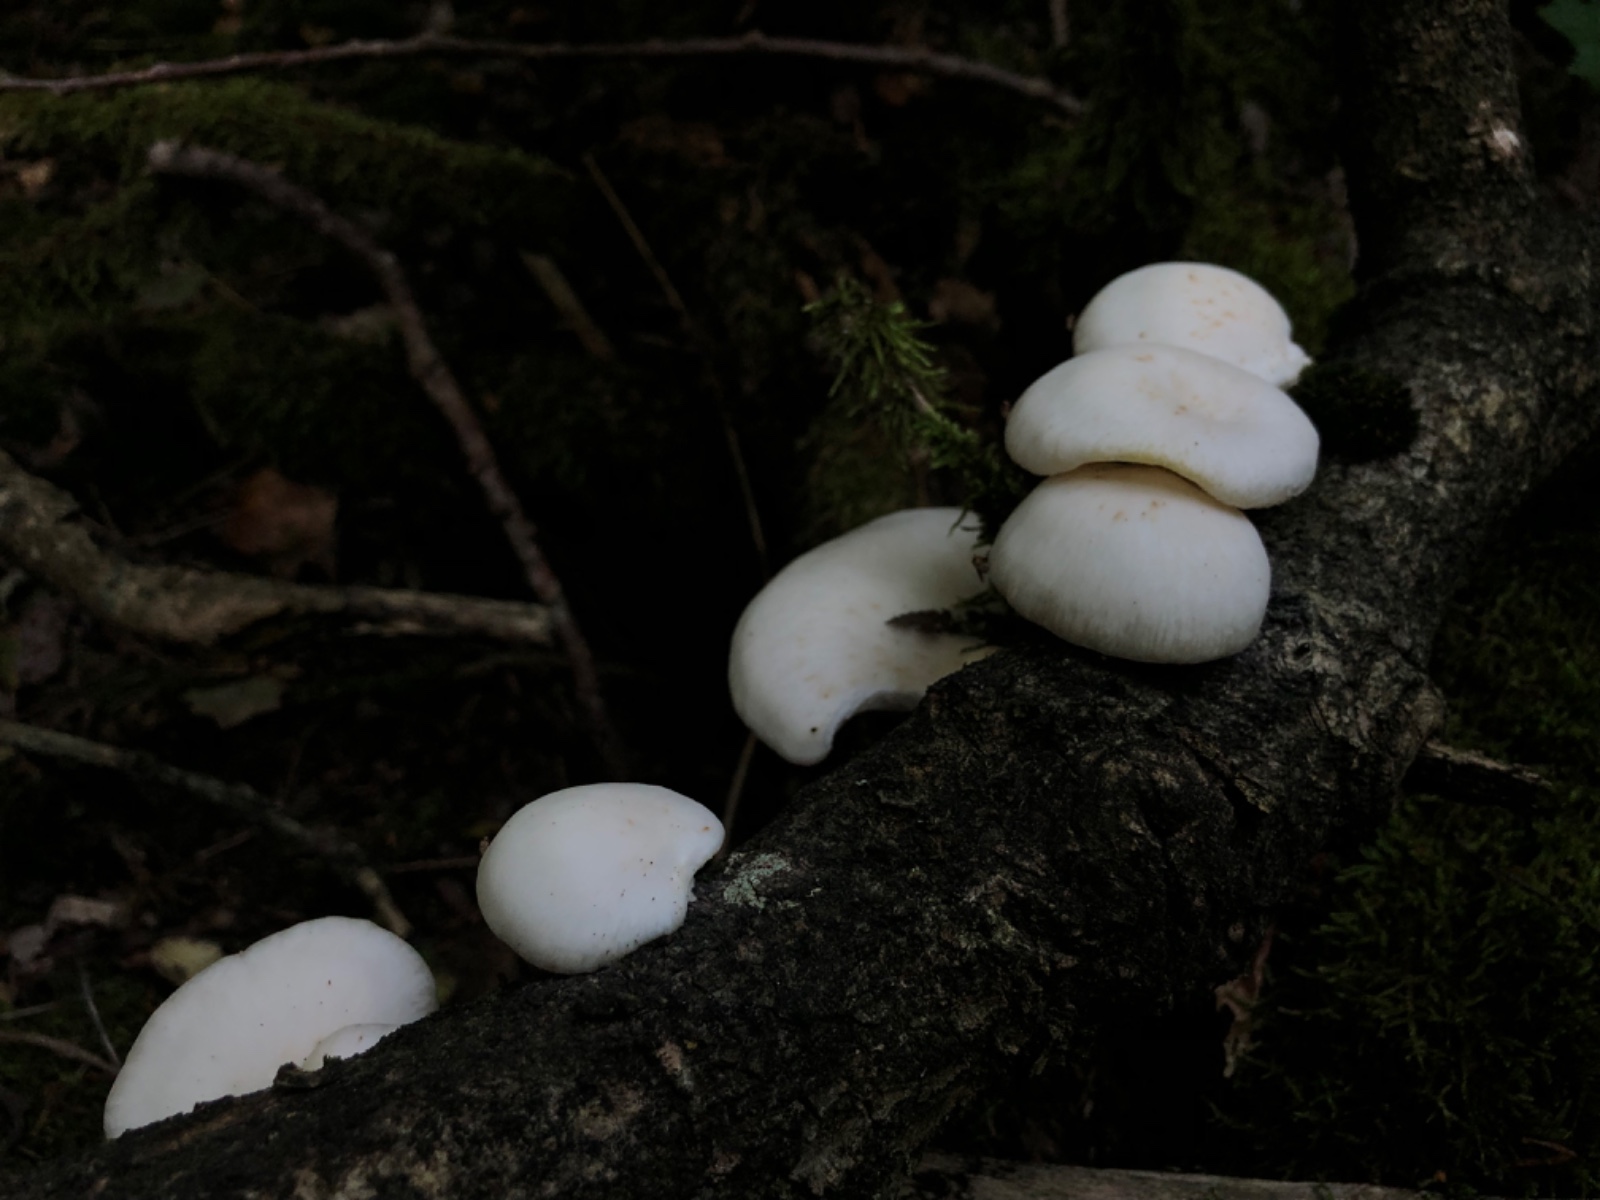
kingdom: Fungi
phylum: Basidiomycota
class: Agaricomycetes
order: Agaricales
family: Pleurotaceae
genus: Pleurotus
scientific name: Pleurotus pulmonarius
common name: sommer-østershat
